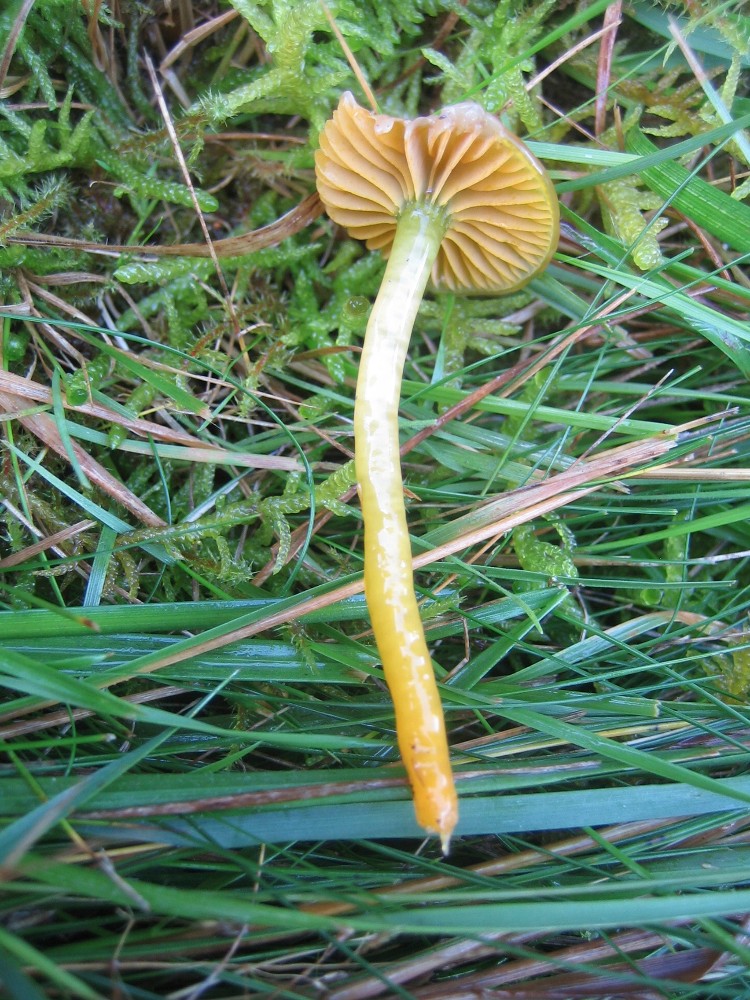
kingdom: Fungi
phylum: Basidiomycota
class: Agaricomycetes
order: Agaricales
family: Hygrophoraceae
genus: Gliophorus
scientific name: Gliophorus psittacinus
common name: papegøje-vokshat
